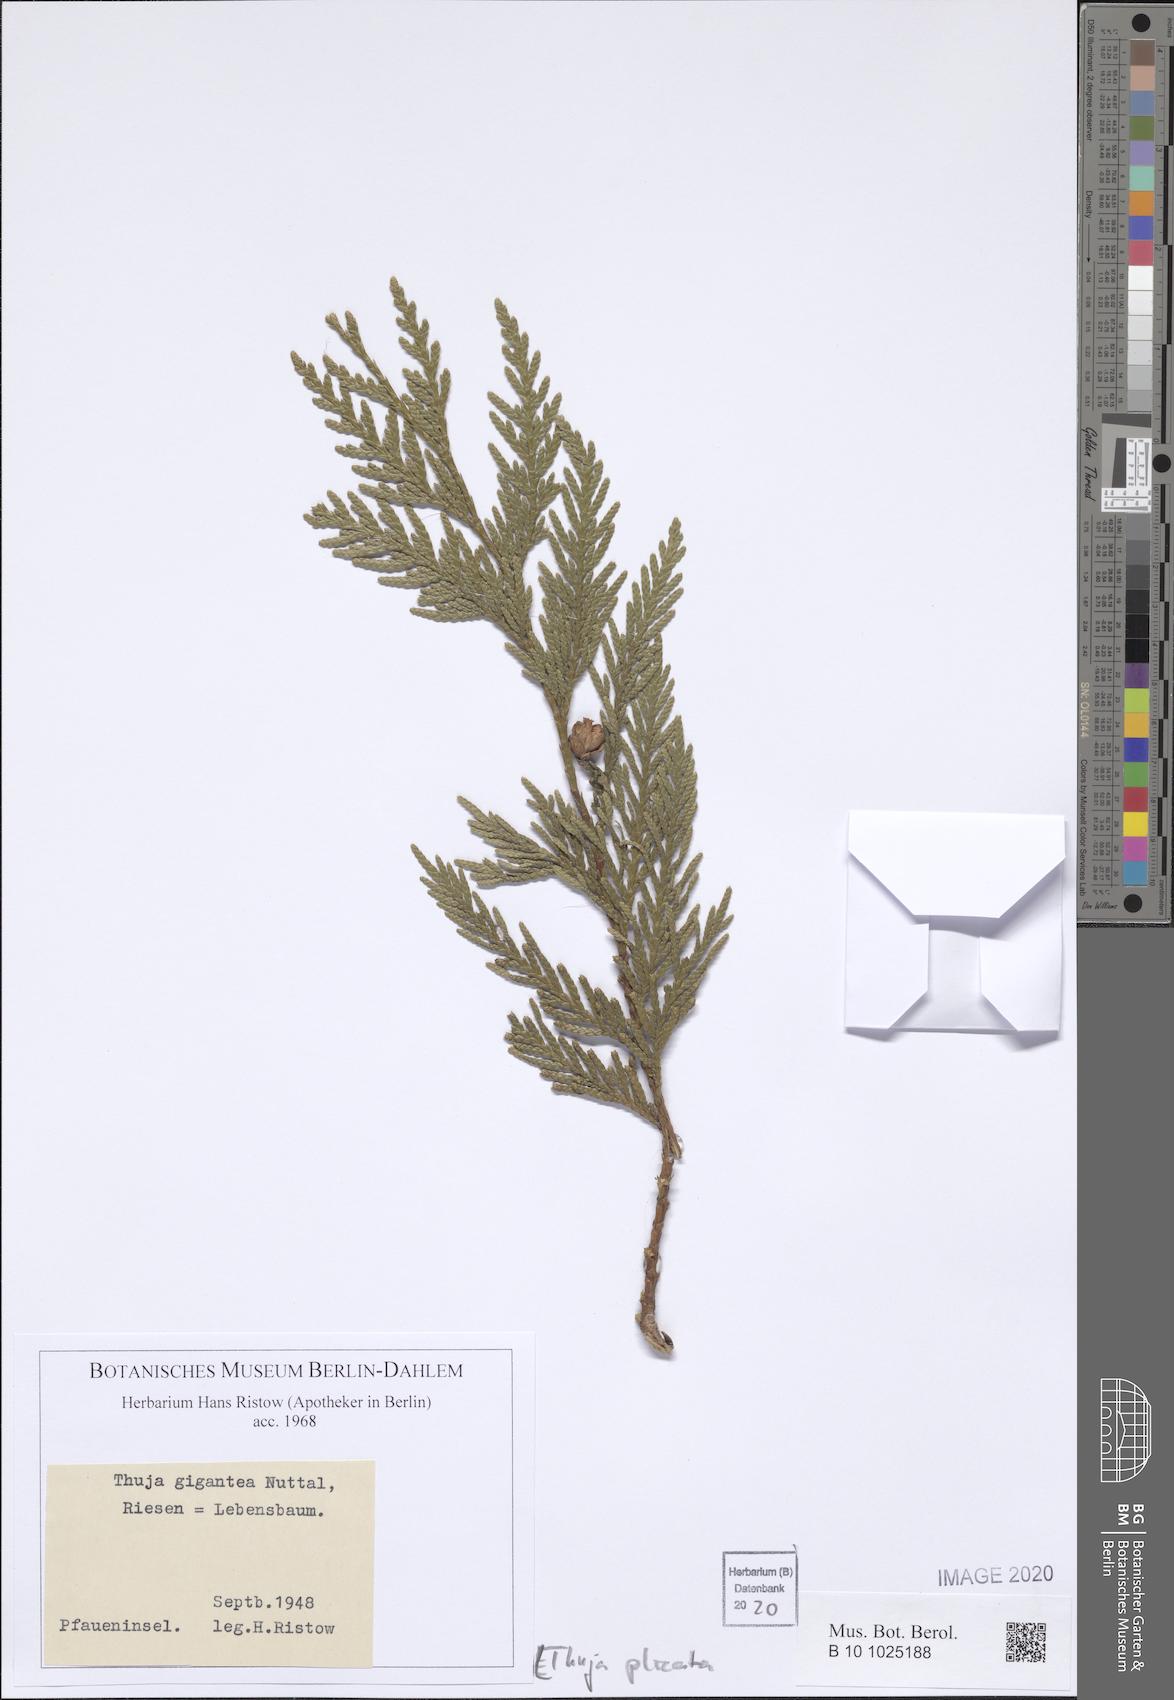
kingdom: Plantae
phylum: Tracheophyta
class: Pinopsida
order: Pinales
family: Cupressaceae
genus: Thuja
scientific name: Thuja plicata
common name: Western red-cedar
